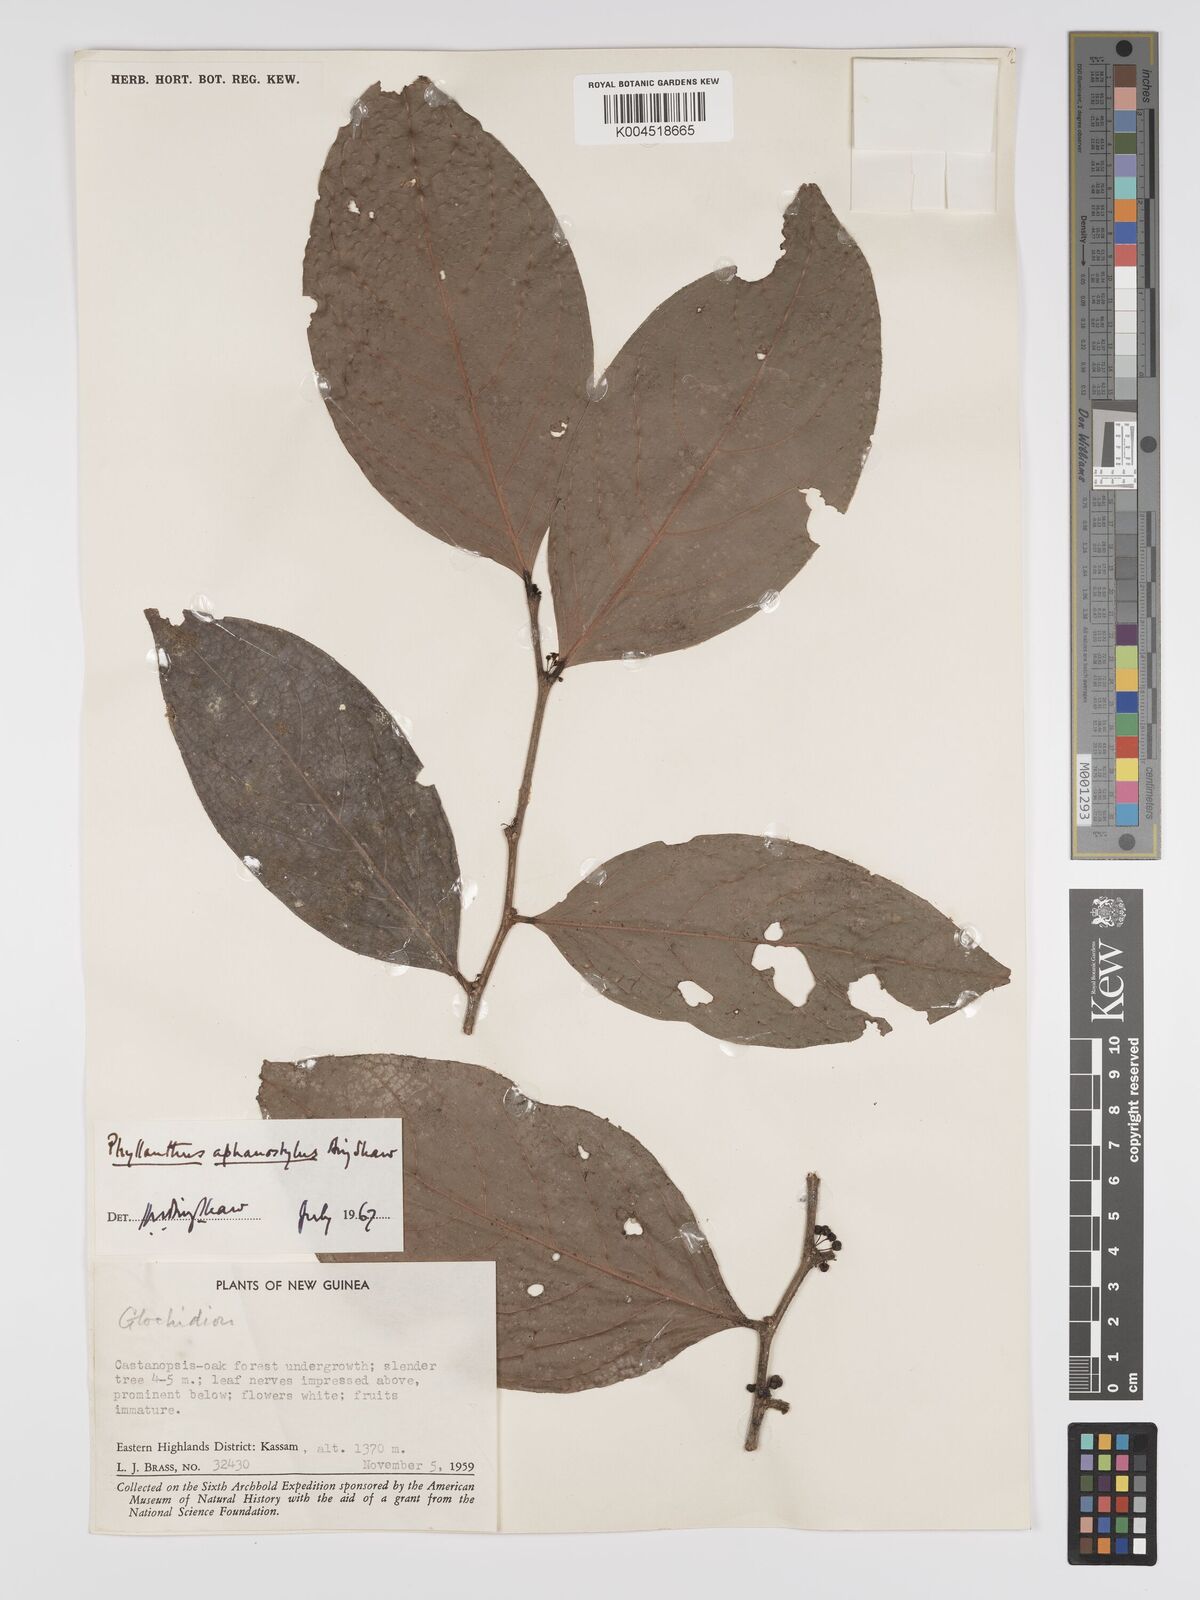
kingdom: Plantae
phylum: Tracheophyta
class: Magnoliopsida
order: Malpighiales
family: Phyllanthaceae
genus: Phyllanthus
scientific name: Phyllanthus aphanostylus
